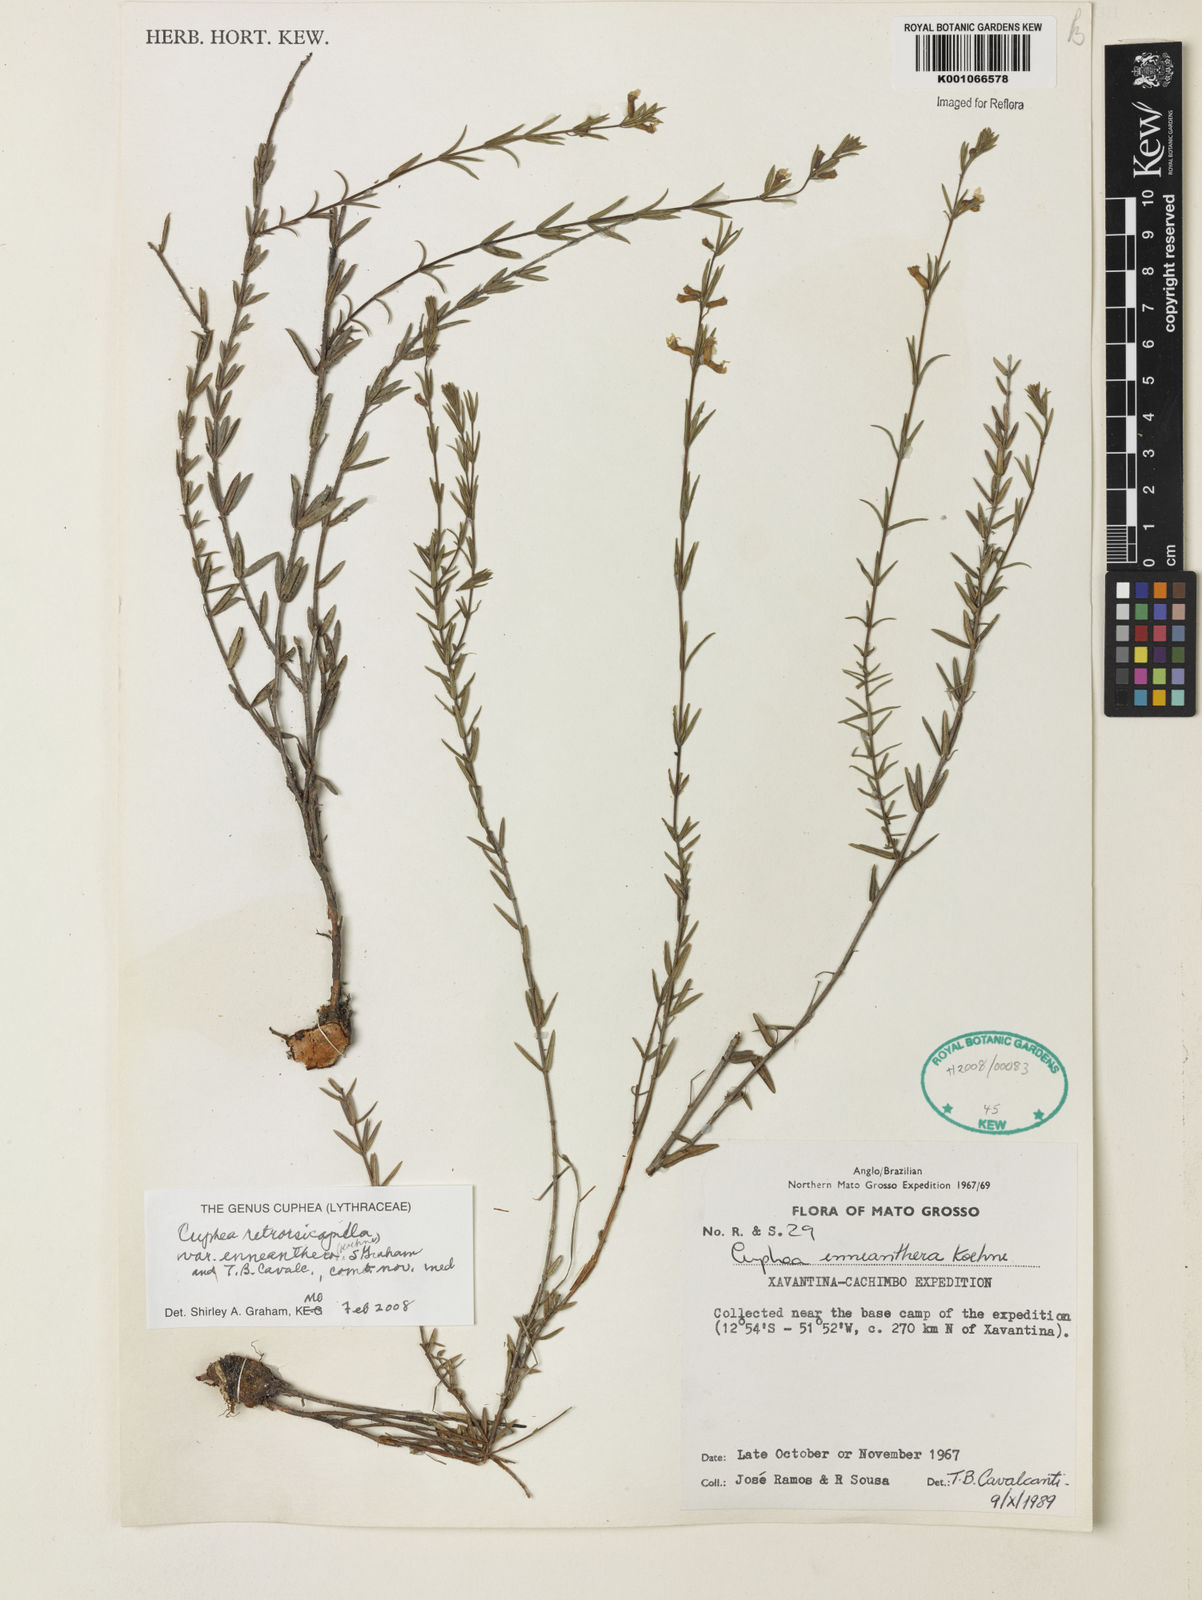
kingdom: Plantae
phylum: Tracheophyta
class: Magnoliopsida
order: Myrtales
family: Lythraceae
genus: Cuphea
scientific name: Cuphea retrorsicapilla
